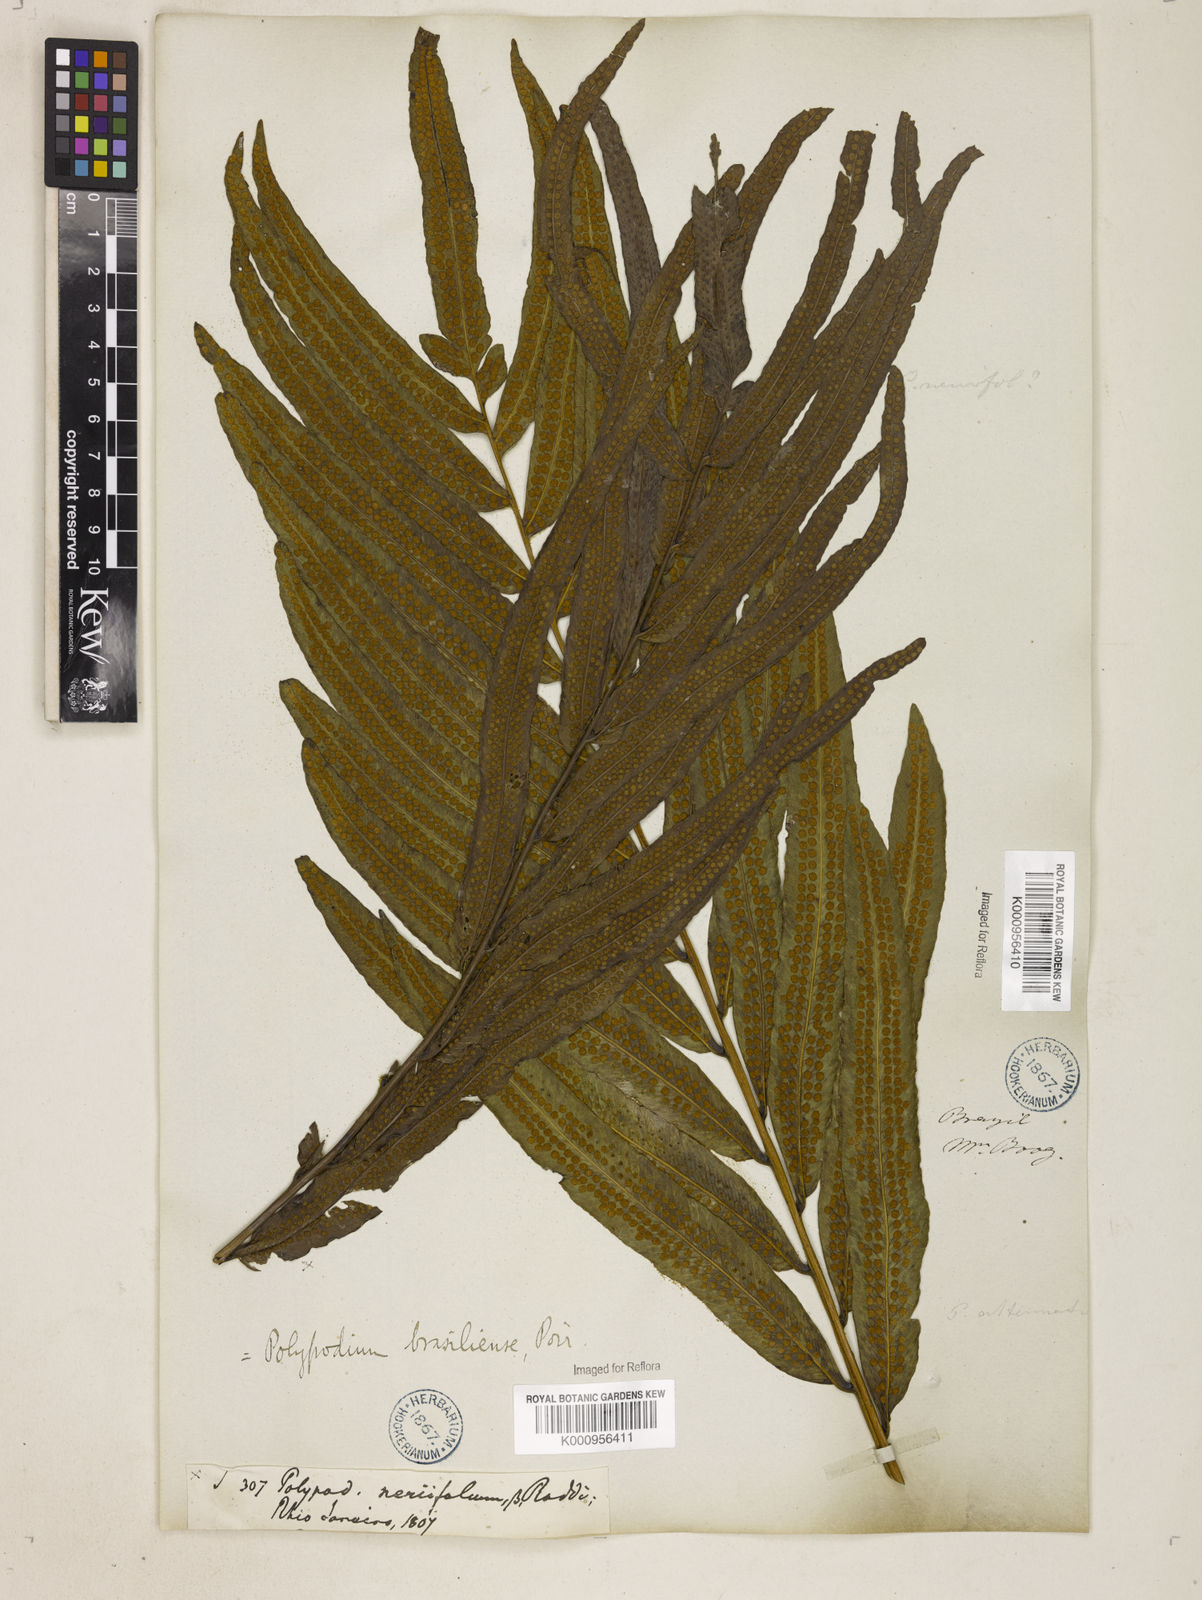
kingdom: Plantae
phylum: Tracheophyta
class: Polypodiopsida
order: Polypodiales
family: Polypodiaceae
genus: Serpocaulon
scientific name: Serpocaulon triseriale
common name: Angle-vein fern
